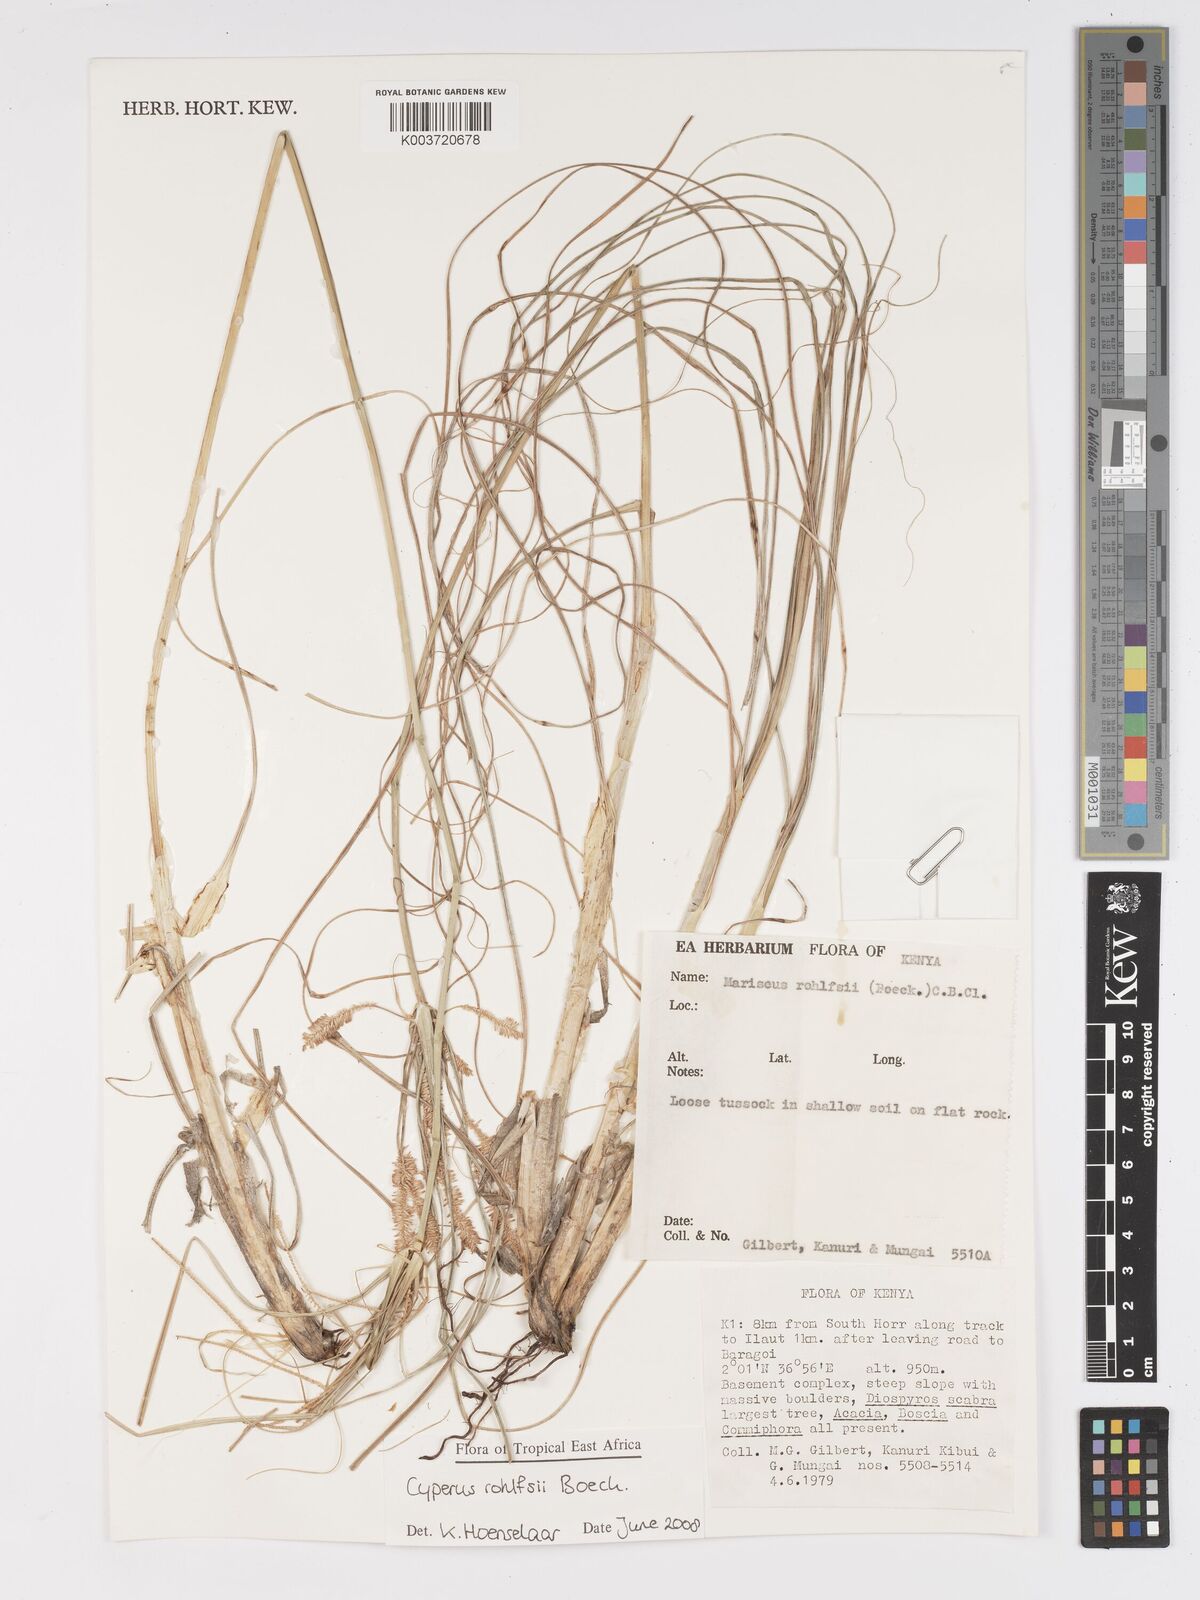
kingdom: Plantae
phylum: Tracheophyta
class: Liliopsida
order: Poales
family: Cyperaceae
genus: Cyperus
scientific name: Cyperus rohlfsii
